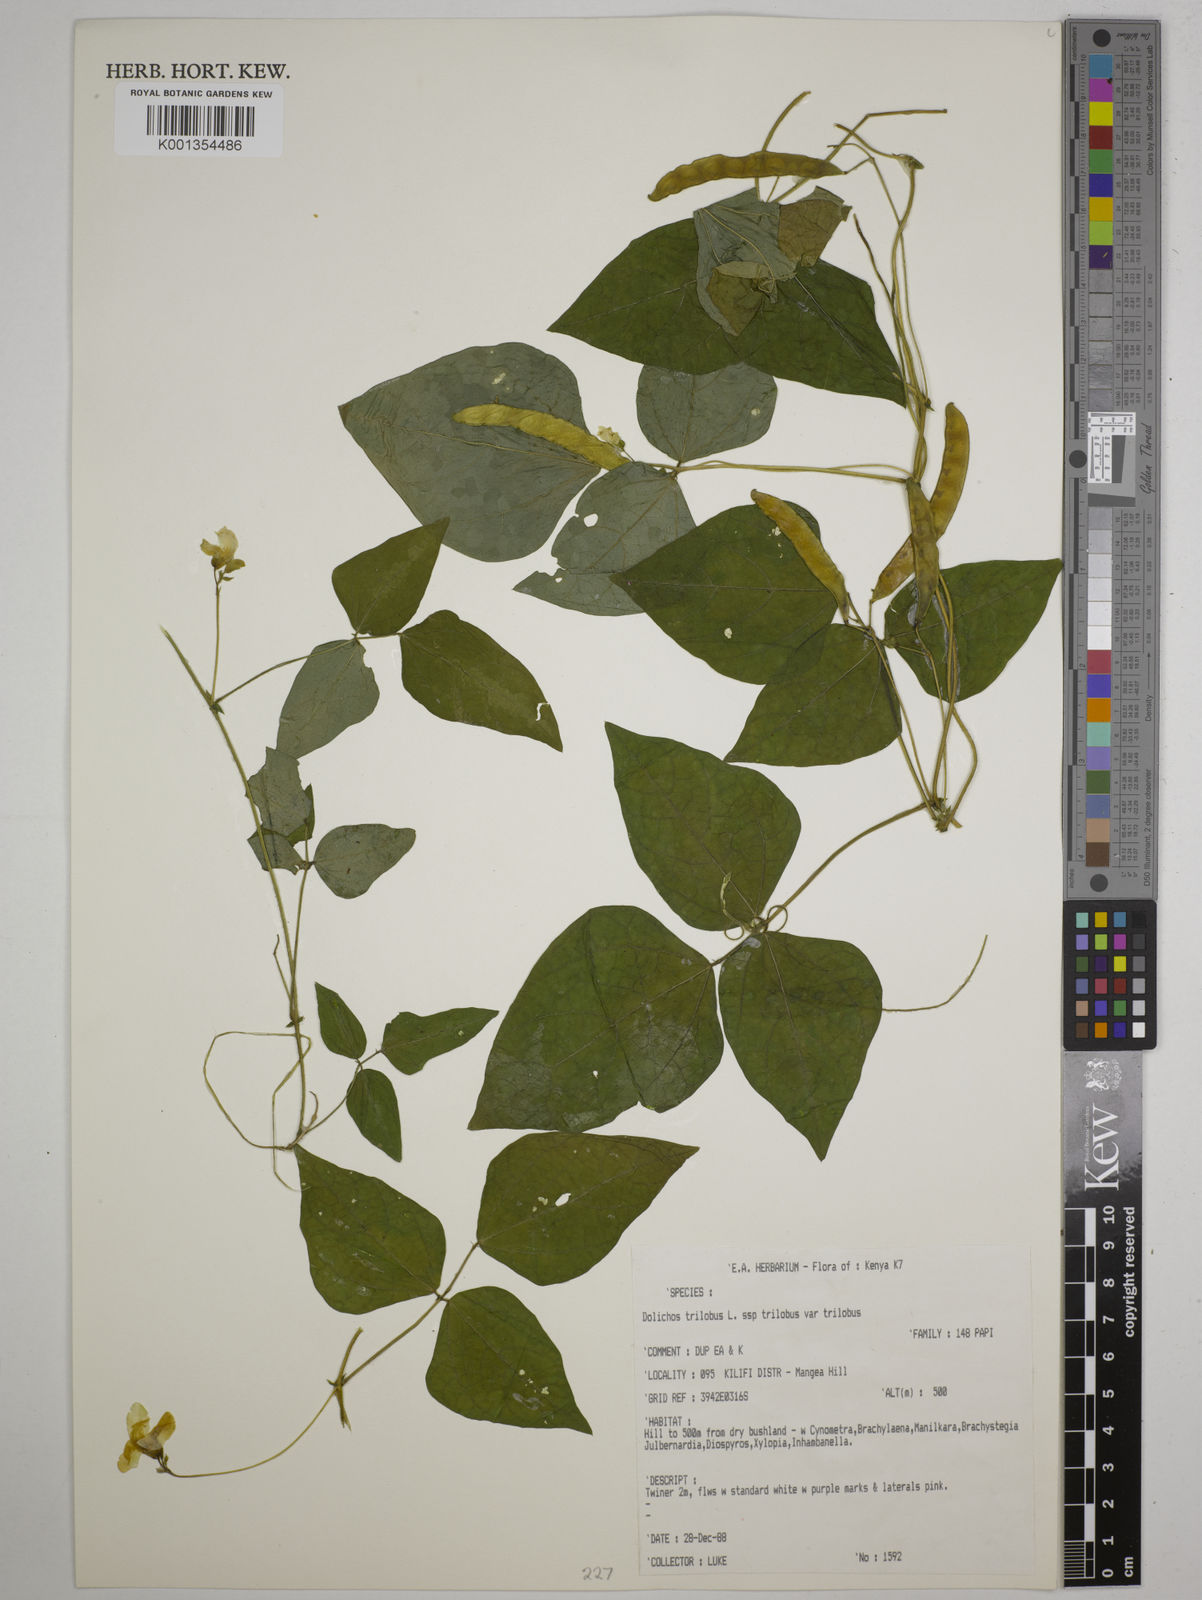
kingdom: Plantae
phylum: Tracheophyta
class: Magnoliopsida
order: Fabales
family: Fabaceae
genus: Dolichos
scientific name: Dolichos
